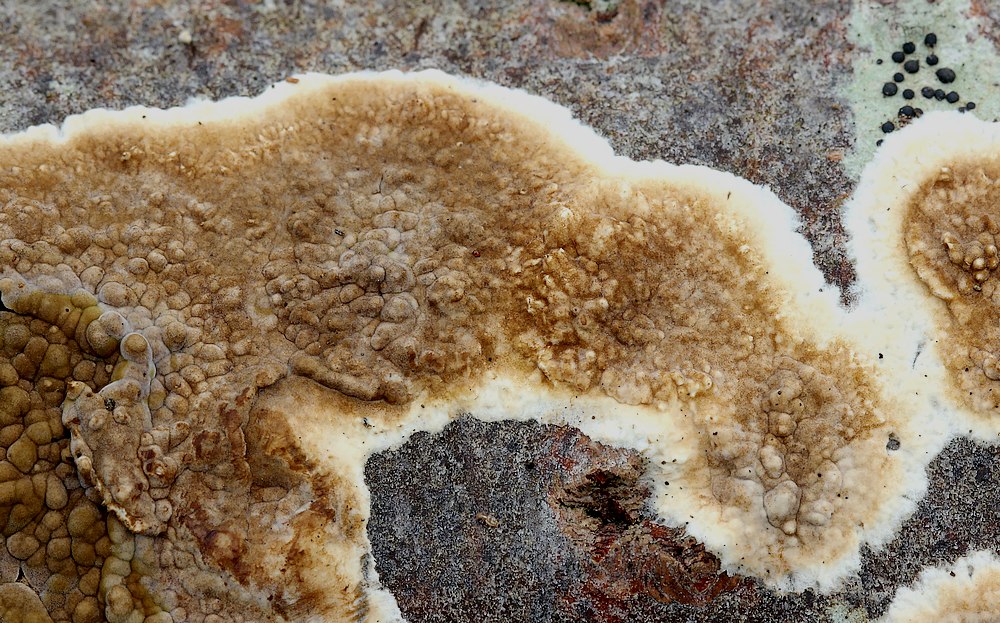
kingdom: Fungi
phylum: Basidiomycota
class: Agaricomycetes
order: Boletales
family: Coniophoraceae
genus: Coniophora
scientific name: Coniophora puteana
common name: gul tømmersvamp
